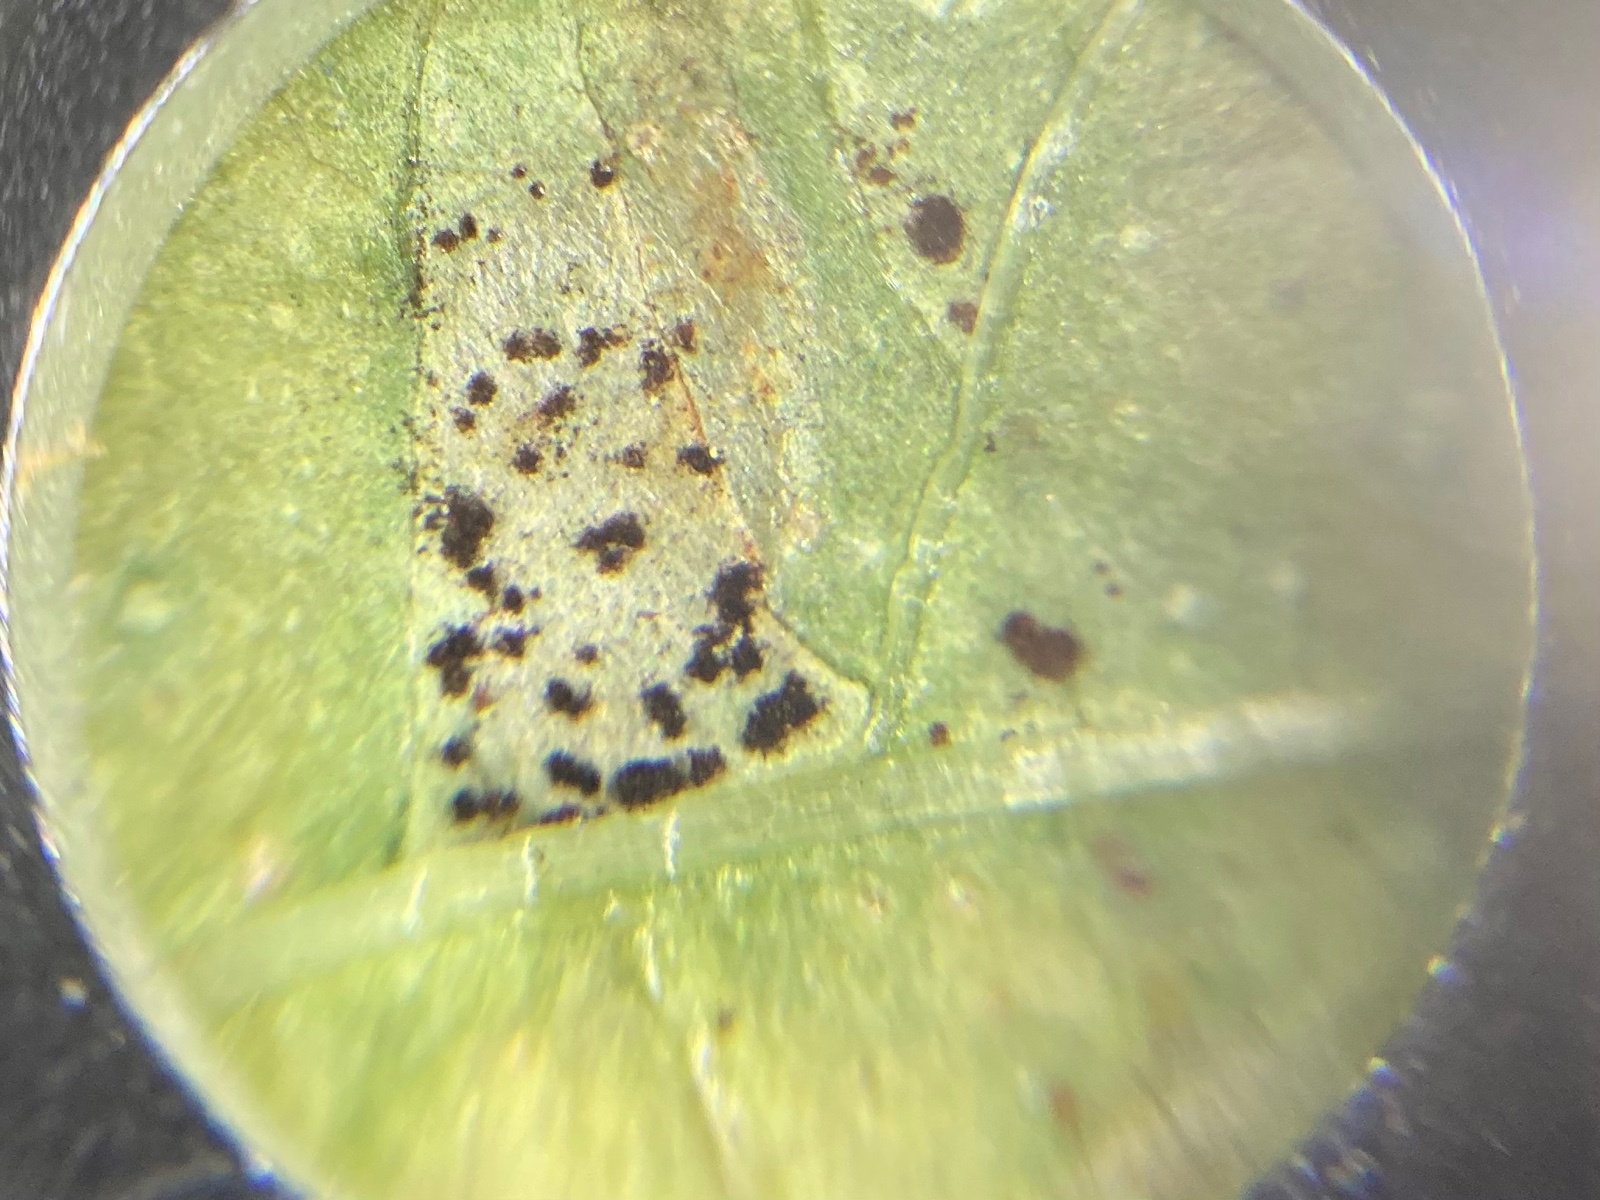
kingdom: Fungi
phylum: Basidiomycota
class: Pucciniomycetes
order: Pucciniales
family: Pucciniaceae
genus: Puccinia
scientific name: Puccinia komarovii
